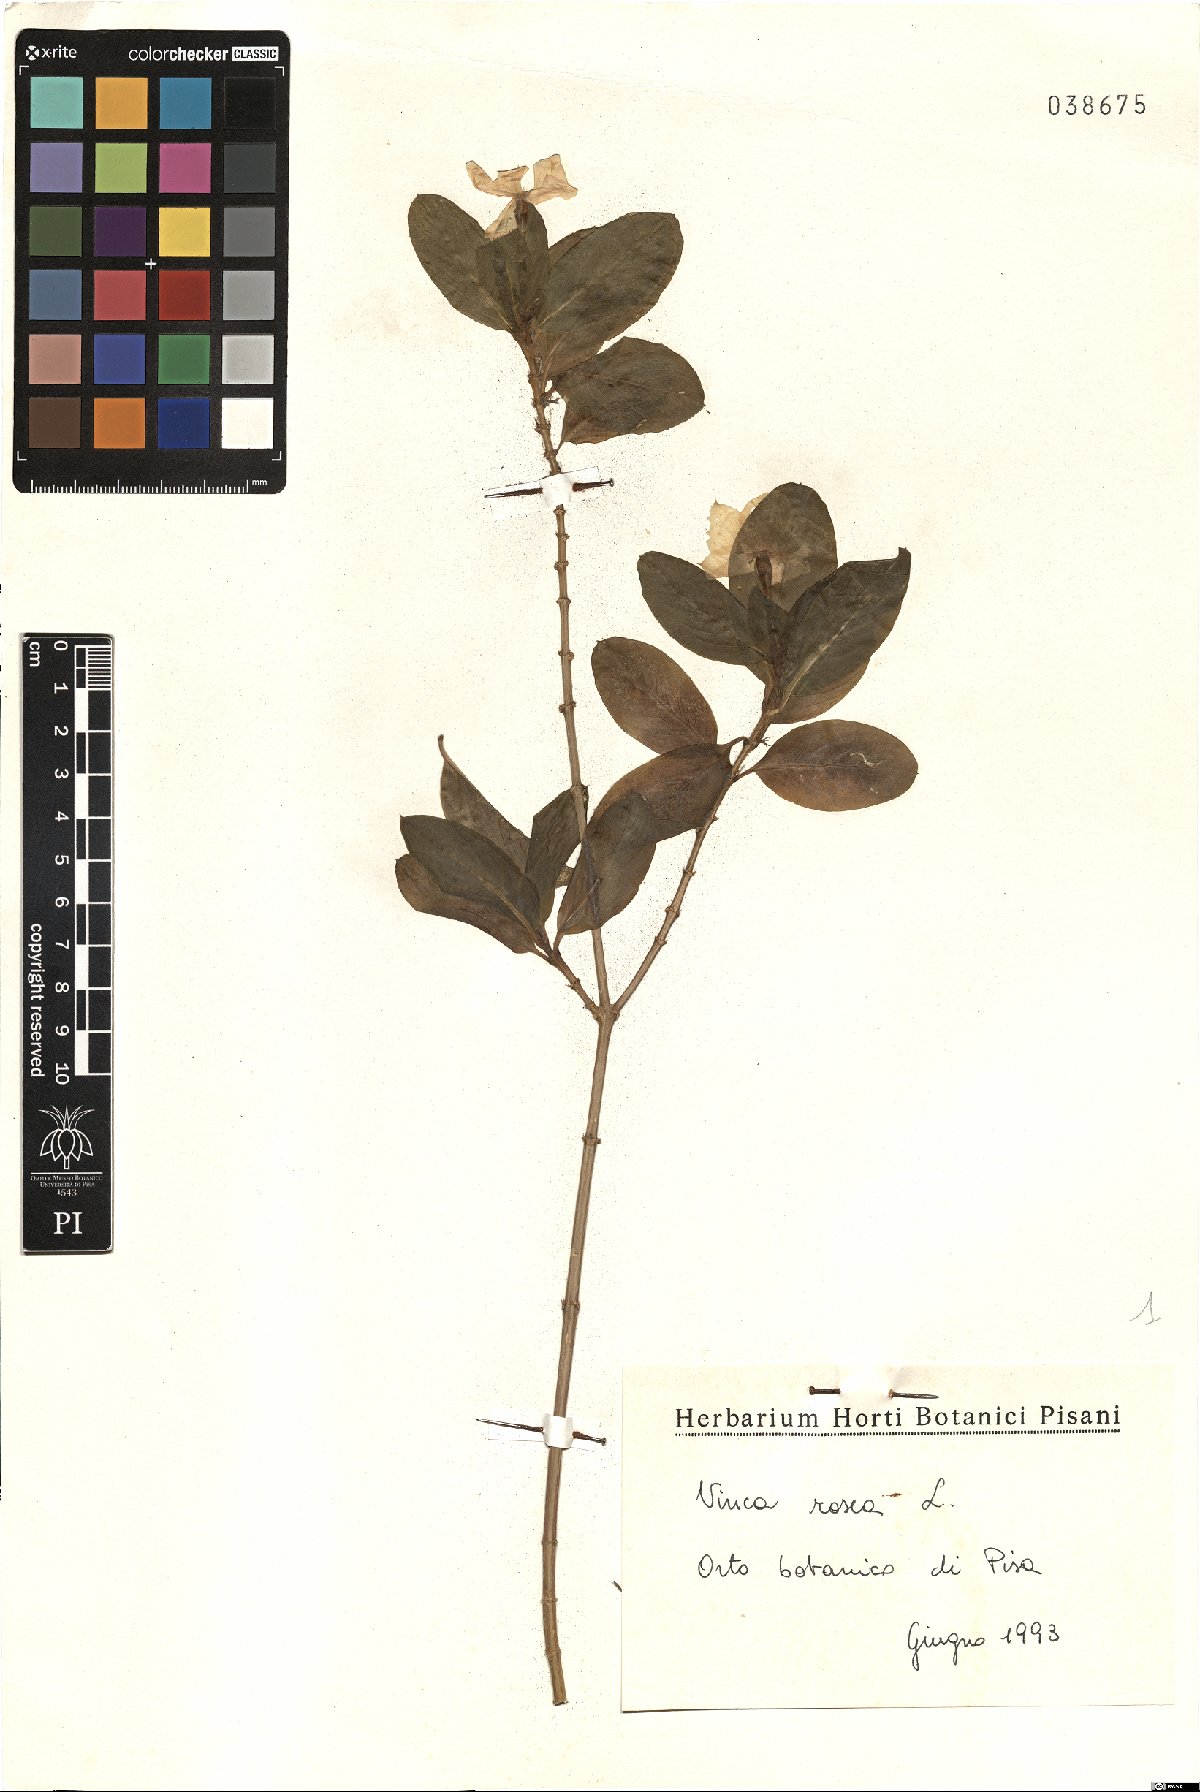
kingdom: Plantae
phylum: Tracheophyta
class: Magnoliopsida
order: Gentianales
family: Apocynaceae
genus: Catharanthus
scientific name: Catharanthus roseus
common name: Madagascar periwinkle
